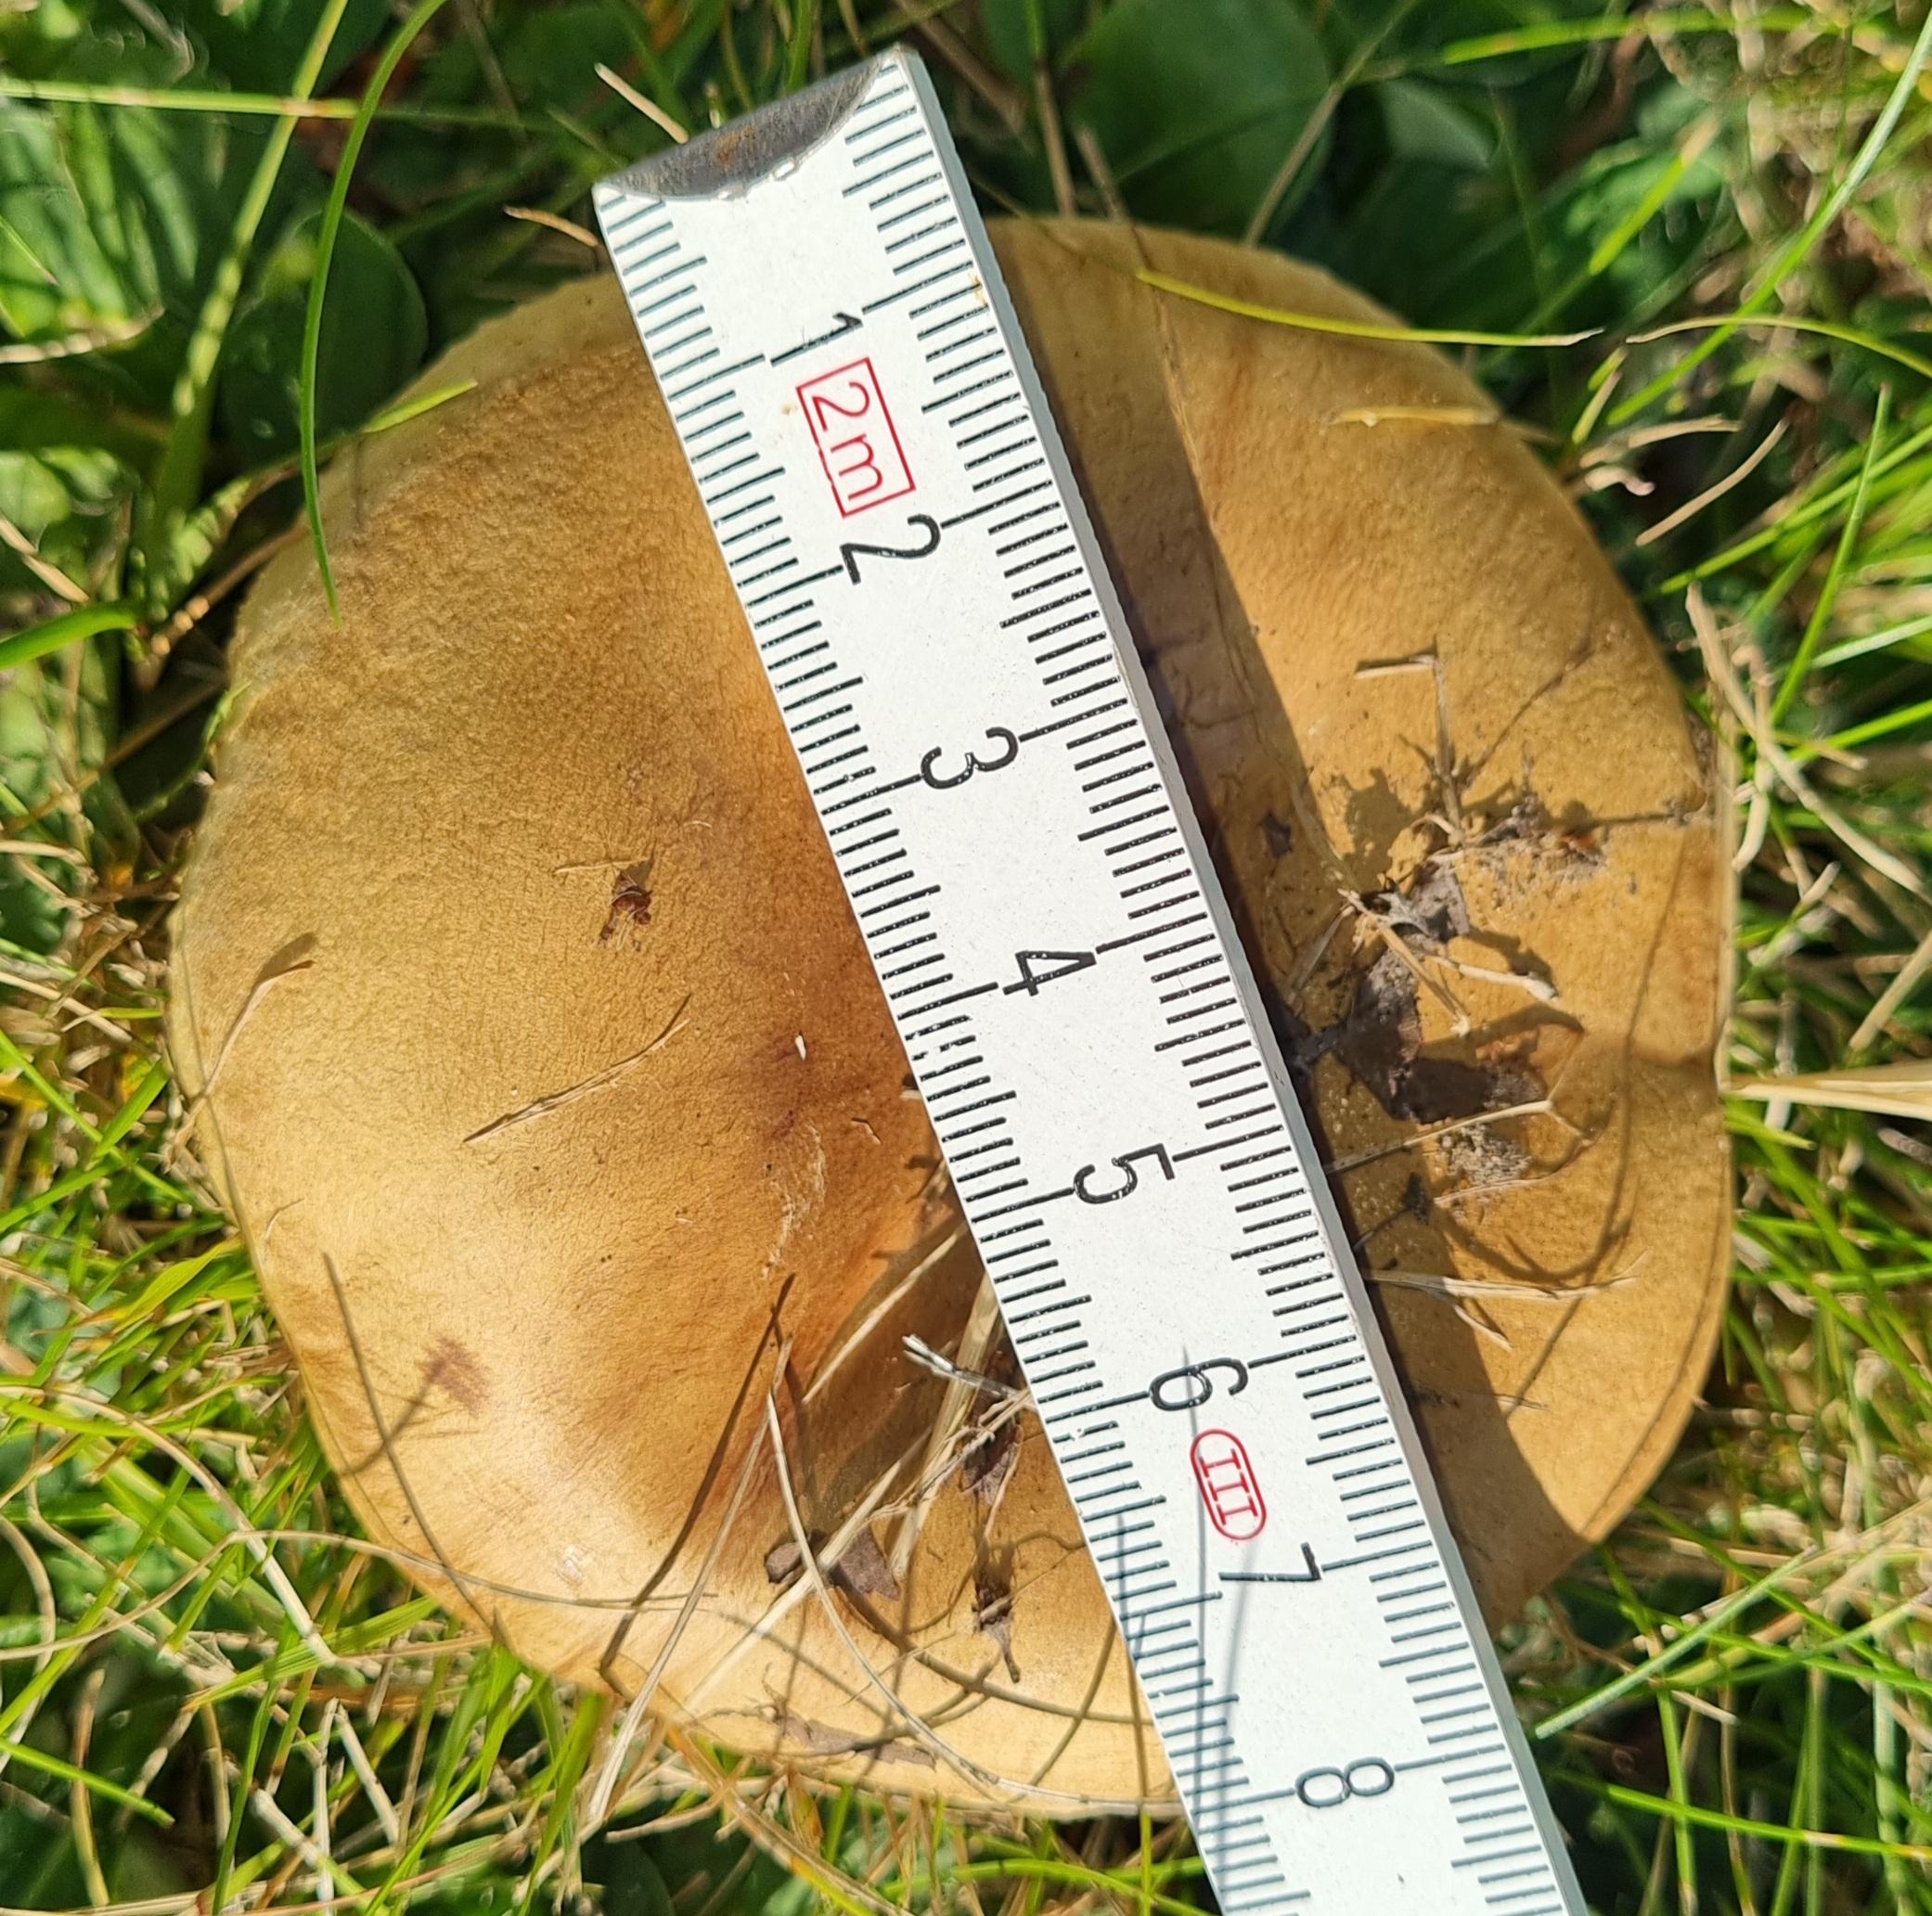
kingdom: Fungi
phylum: Basidiomycota
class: Agaricomycetes
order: Boletales
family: Paxillaceae
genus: Paxillus
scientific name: Paxillus
